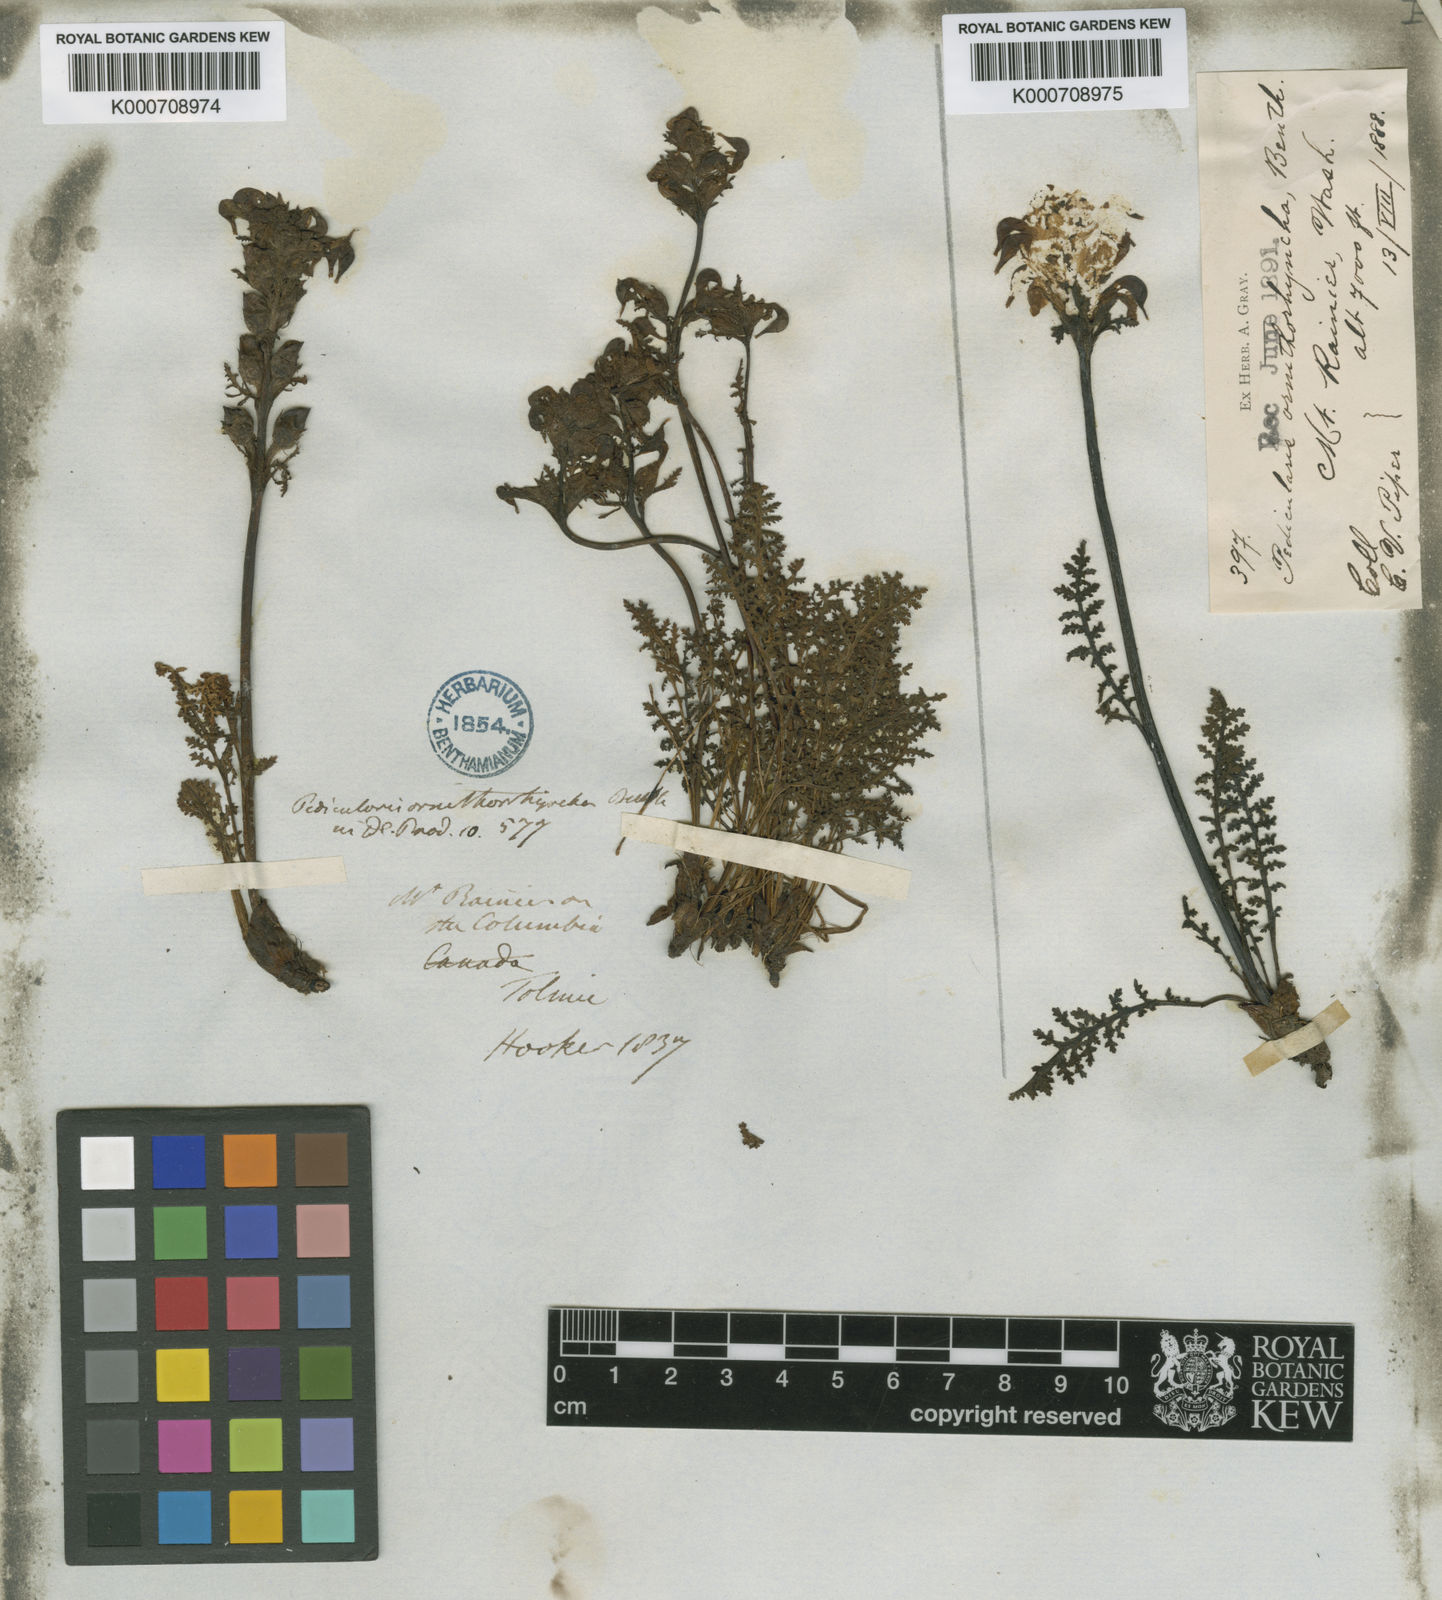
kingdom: Plantae
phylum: Tracheophyta
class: Magnoliopsida
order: Lamiales
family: Orobanchaceae
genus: Pedicularis
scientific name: Pedicularis ornithorhynchos
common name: Bird's-beak lousewort
